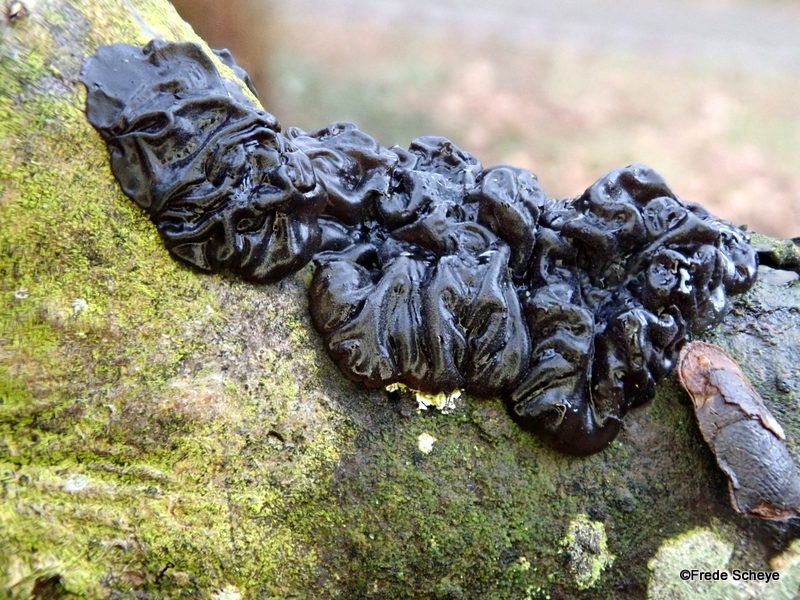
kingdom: Fungi
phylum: Basidiomycota
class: Agaricomycetes
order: Auriculariales
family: Auriculariaceae
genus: Exidia
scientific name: Exidia nigricans
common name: almindelig bævretop
